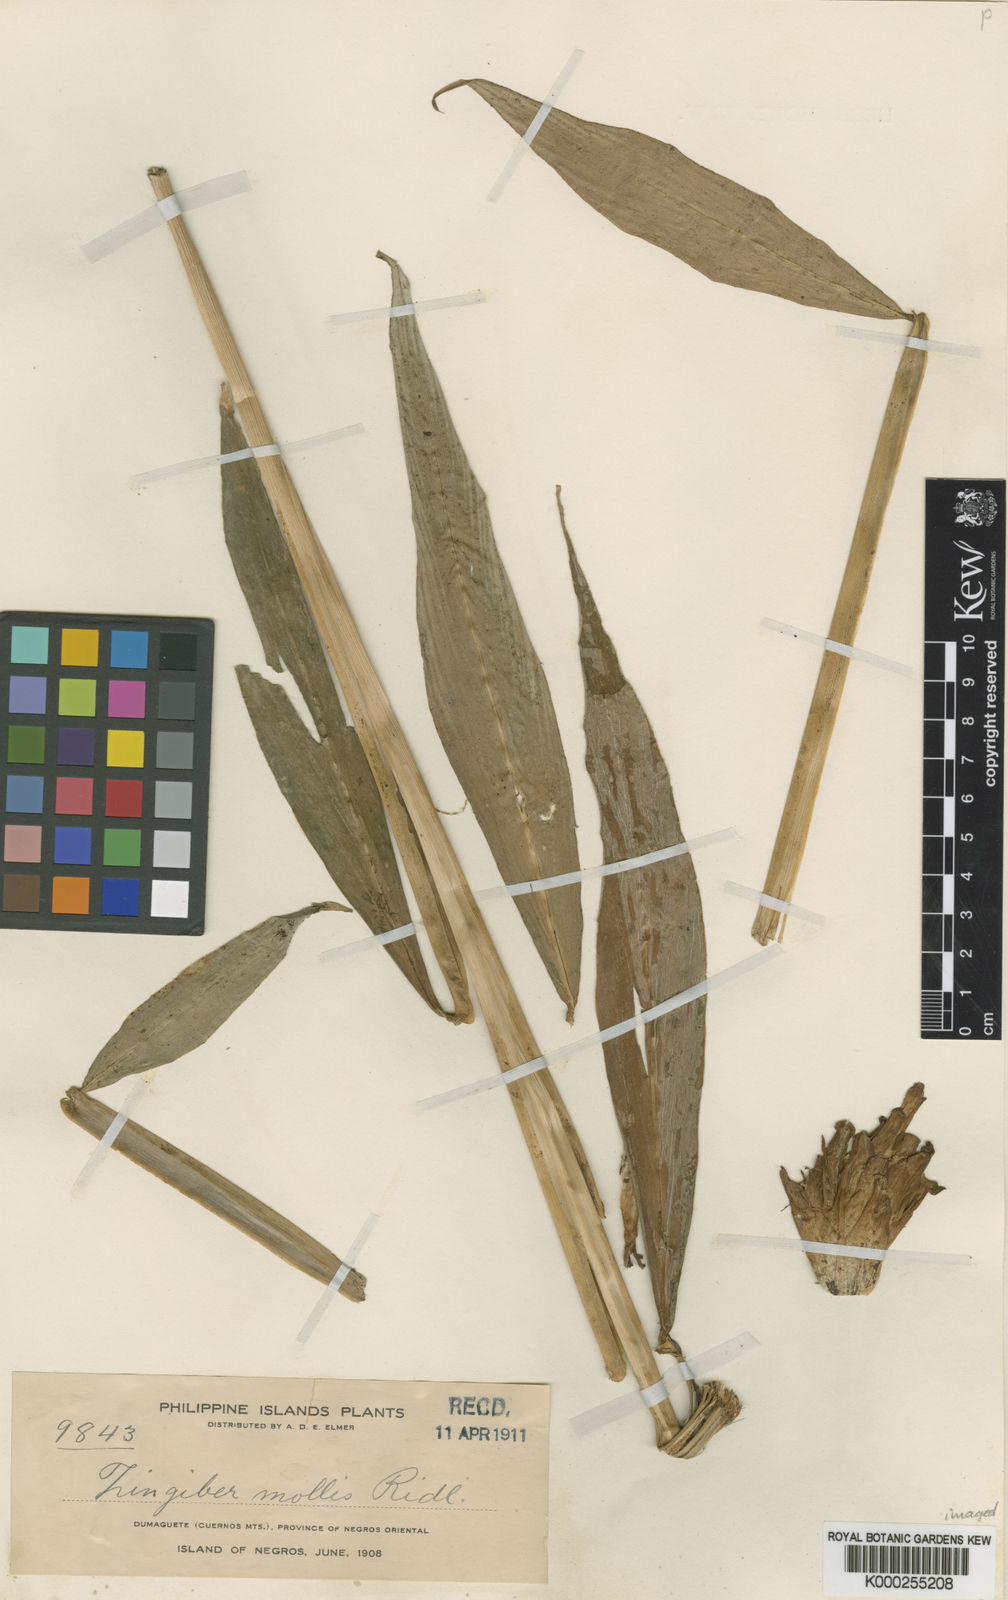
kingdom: Plantae
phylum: Tracheophyta
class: Liliopsida
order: Zingiberales
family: Zingiberaceae
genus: Zingiber
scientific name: Zingiber molle
